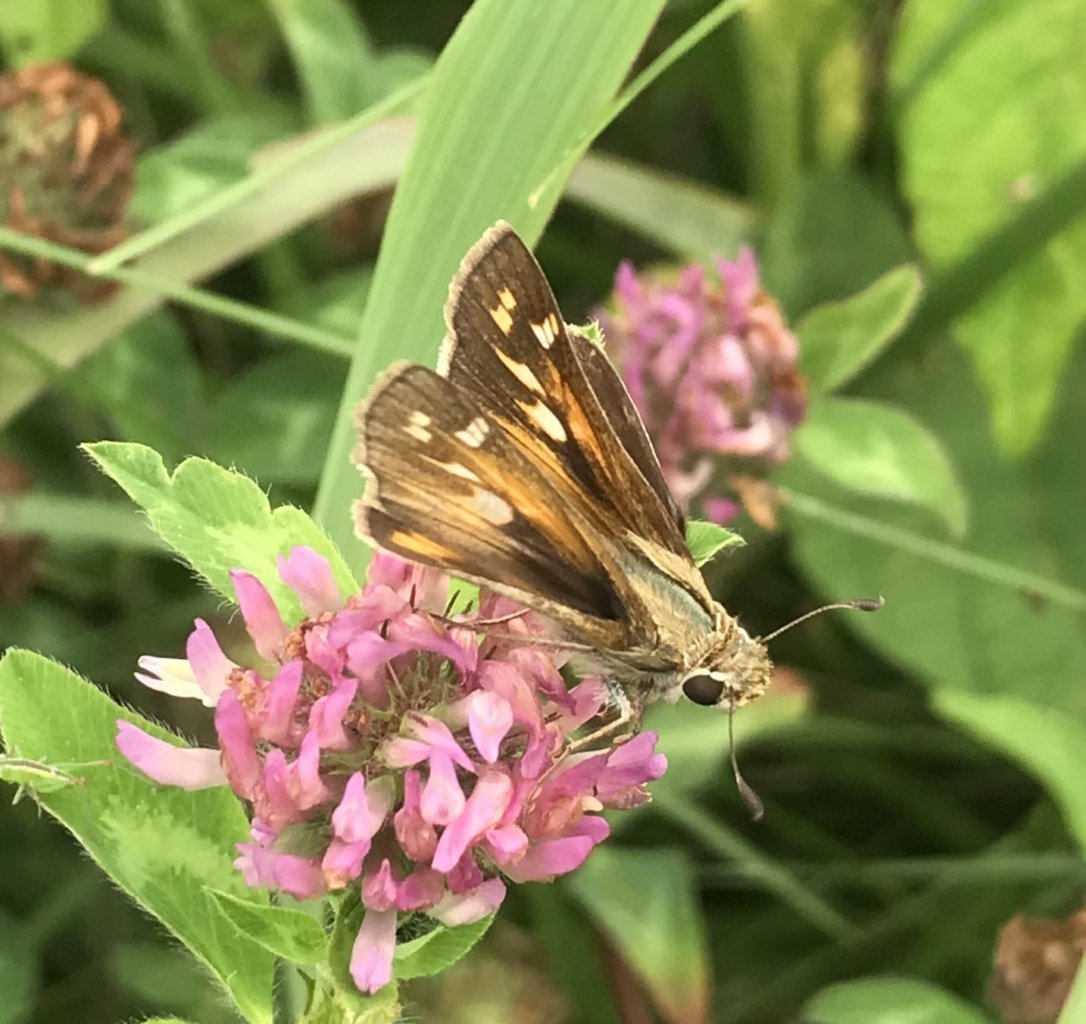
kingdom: Animalia
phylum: Arthropoda
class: Insecta
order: Lepidoptera
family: Hesperiidae
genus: Atalopedes
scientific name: Atalopedes campestris
